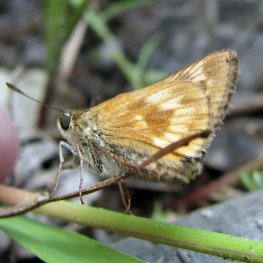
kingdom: Animalia
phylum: Arthropoda
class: Insecta
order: Lepidoptera
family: Hesperiidae
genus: Polites
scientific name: Polites
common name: Long Dash Skipper
